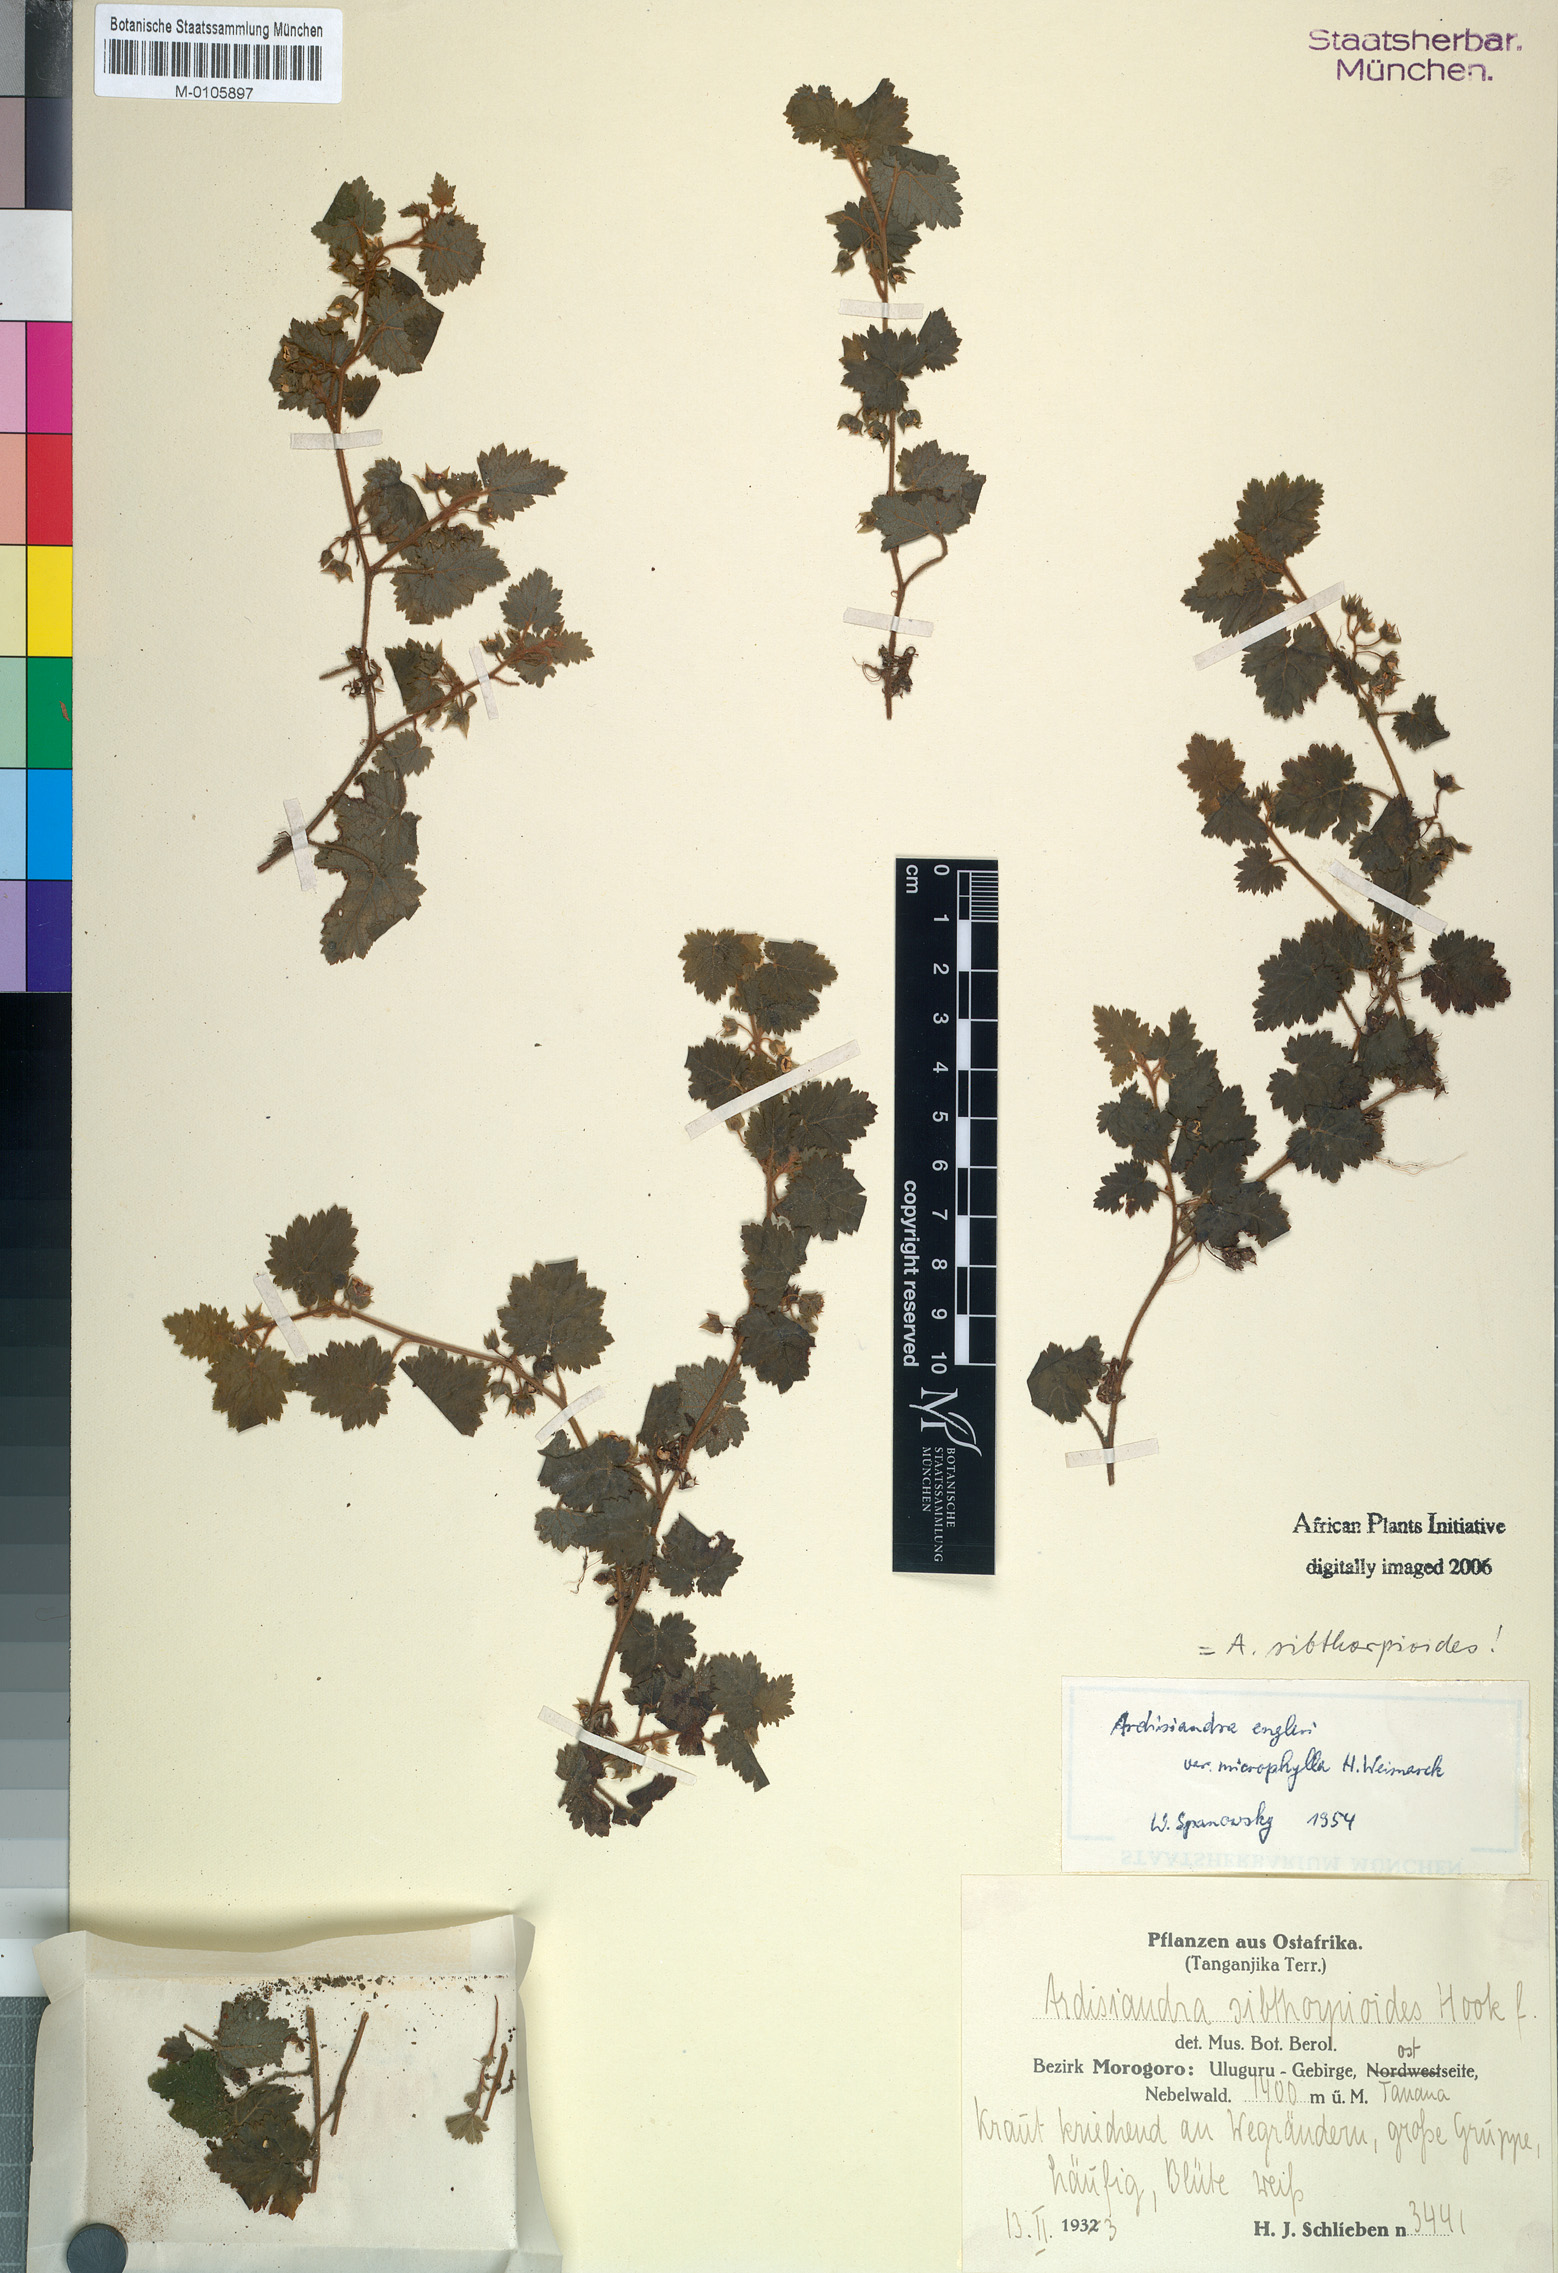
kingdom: Plantae
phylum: Tracheophyta
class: Magnoliopsida
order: Ericales
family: Primulaceae
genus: Ardisiandra
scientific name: Ardisiandra sibthorpioides
